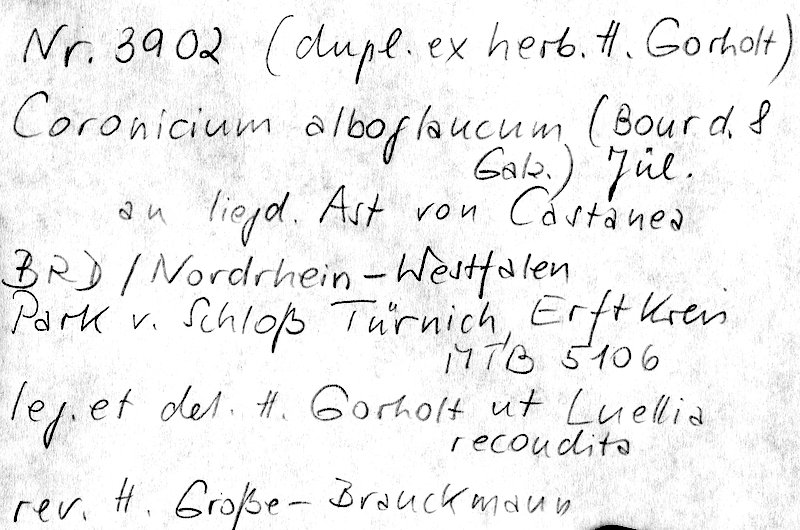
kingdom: Plantae
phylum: Tracheophyta
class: Magnoliopsida
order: Fagales
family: Fagaceae
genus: Castanea
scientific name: Castanea
